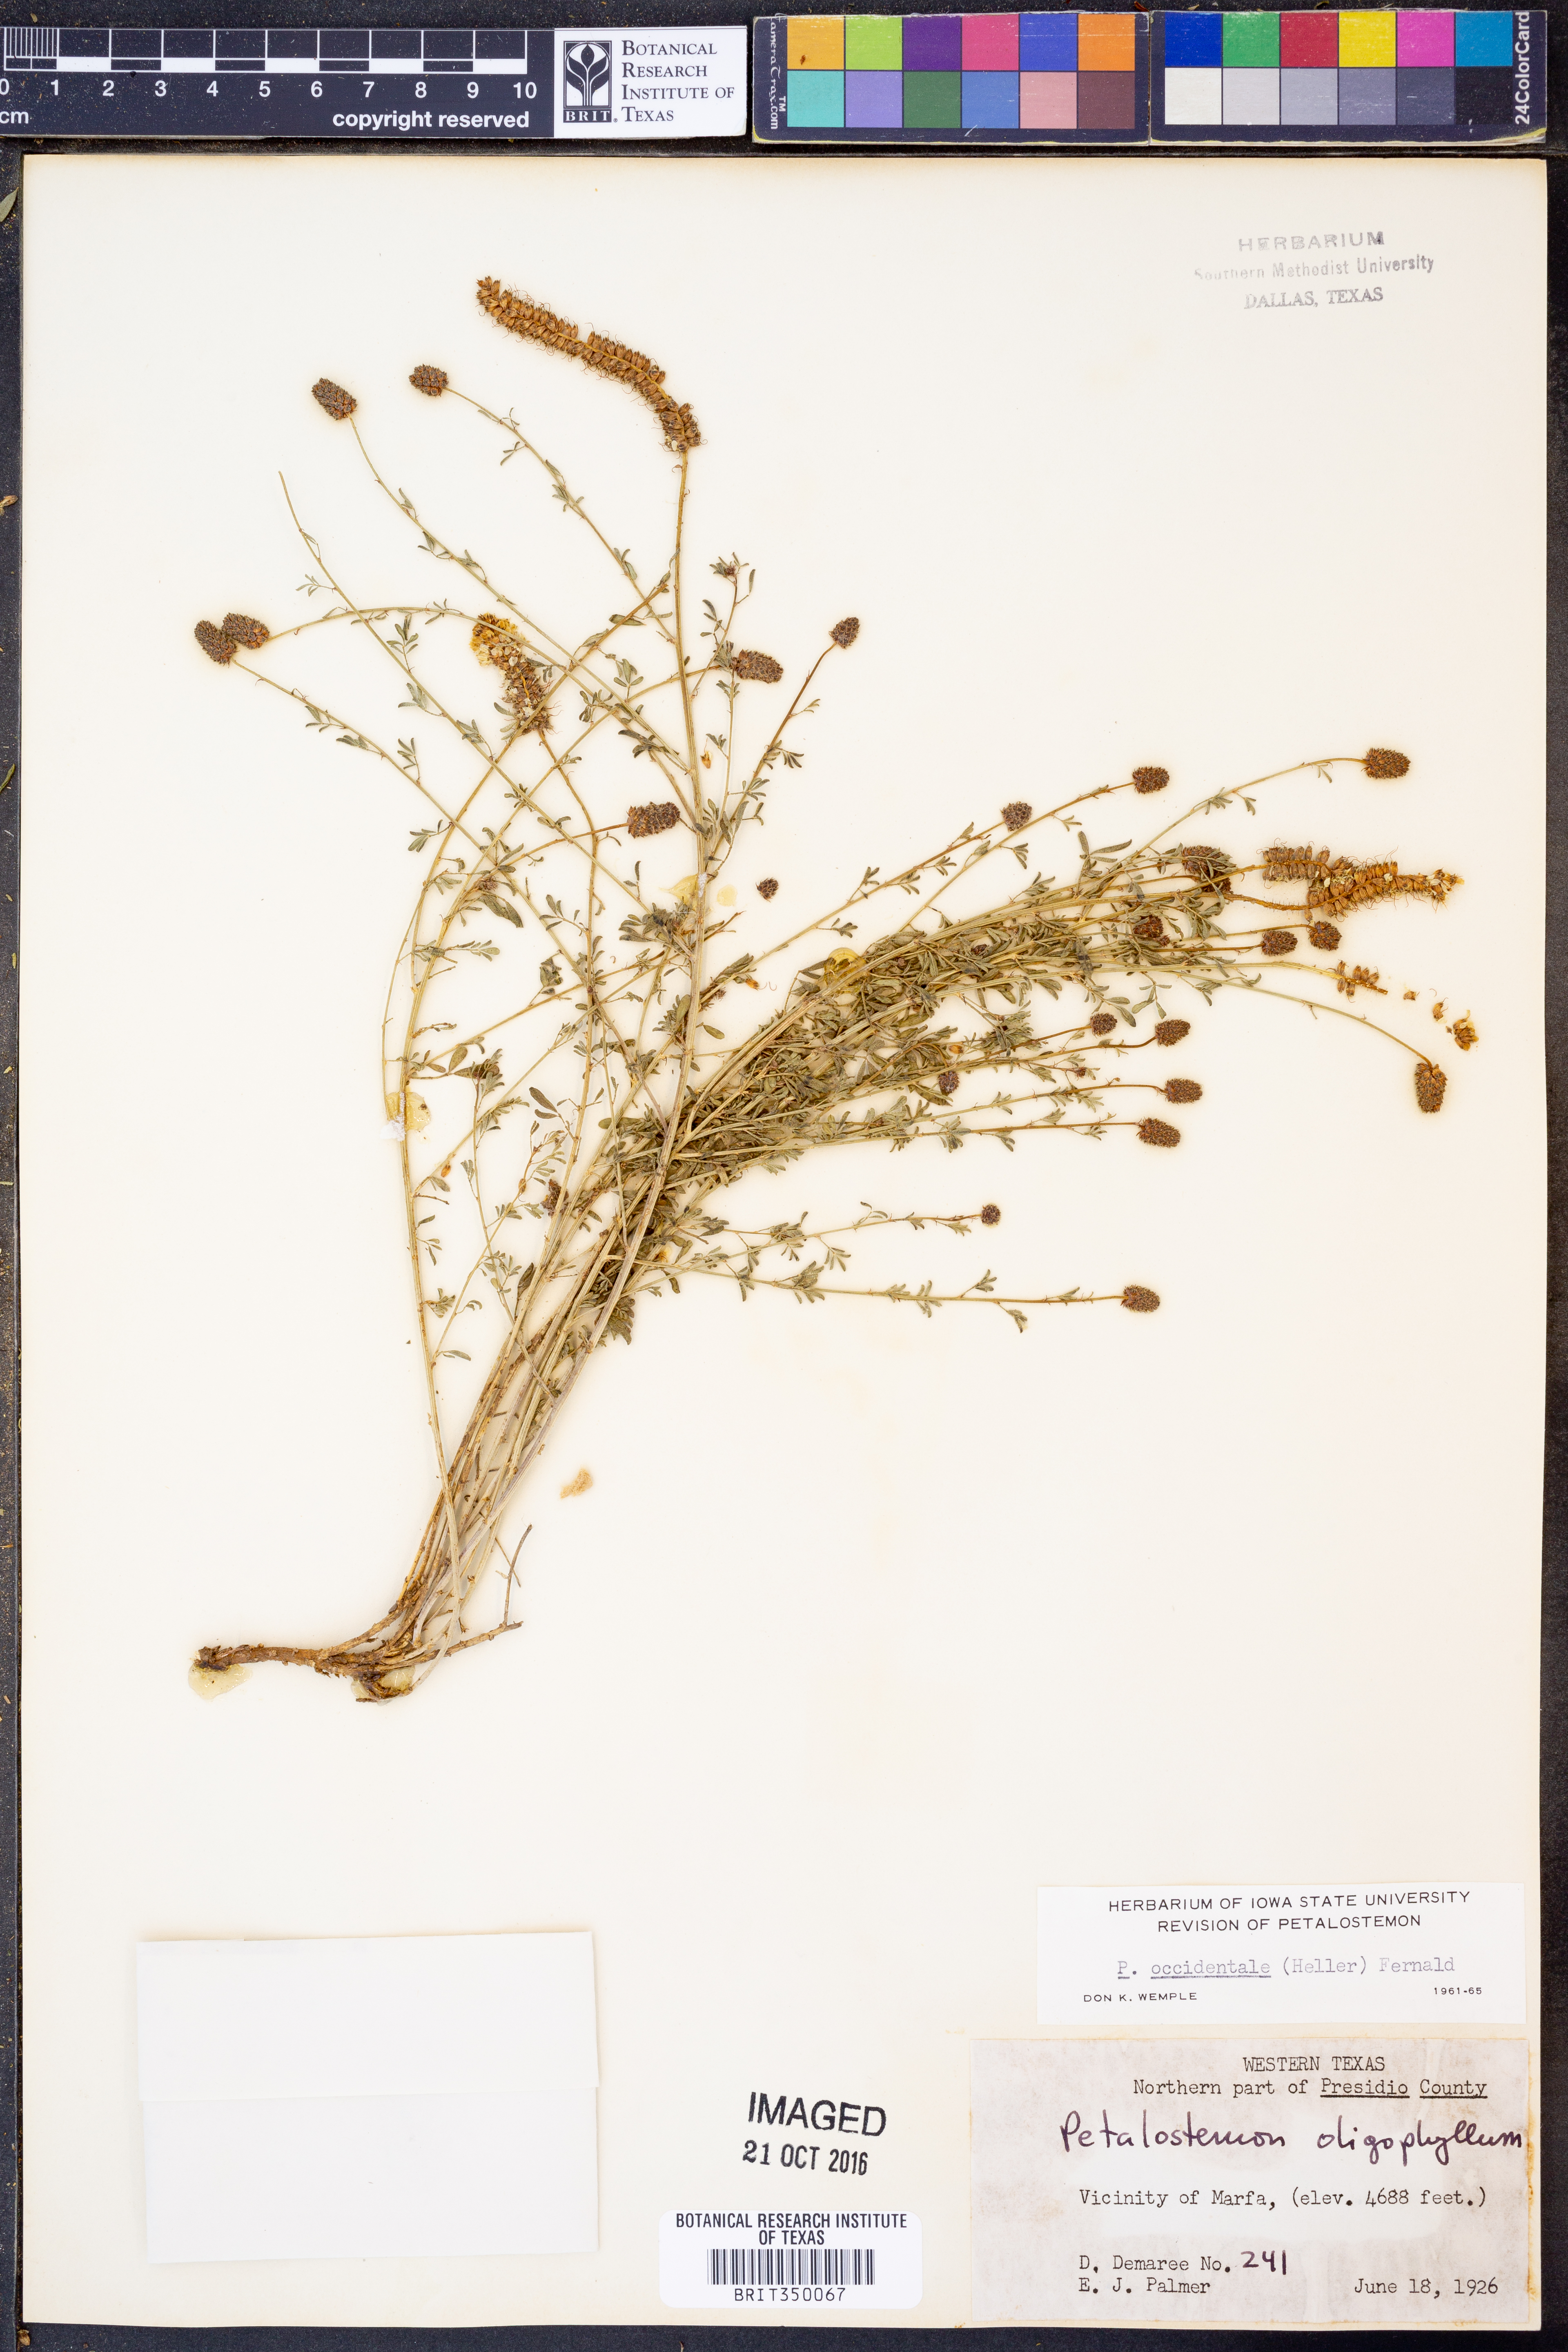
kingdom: Plantae
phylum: Tracheophyta
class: Magnoliopsida
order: Fabales
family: Fabaceae
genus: Dalea
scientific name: Dalea candida
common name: White prairie-clover
